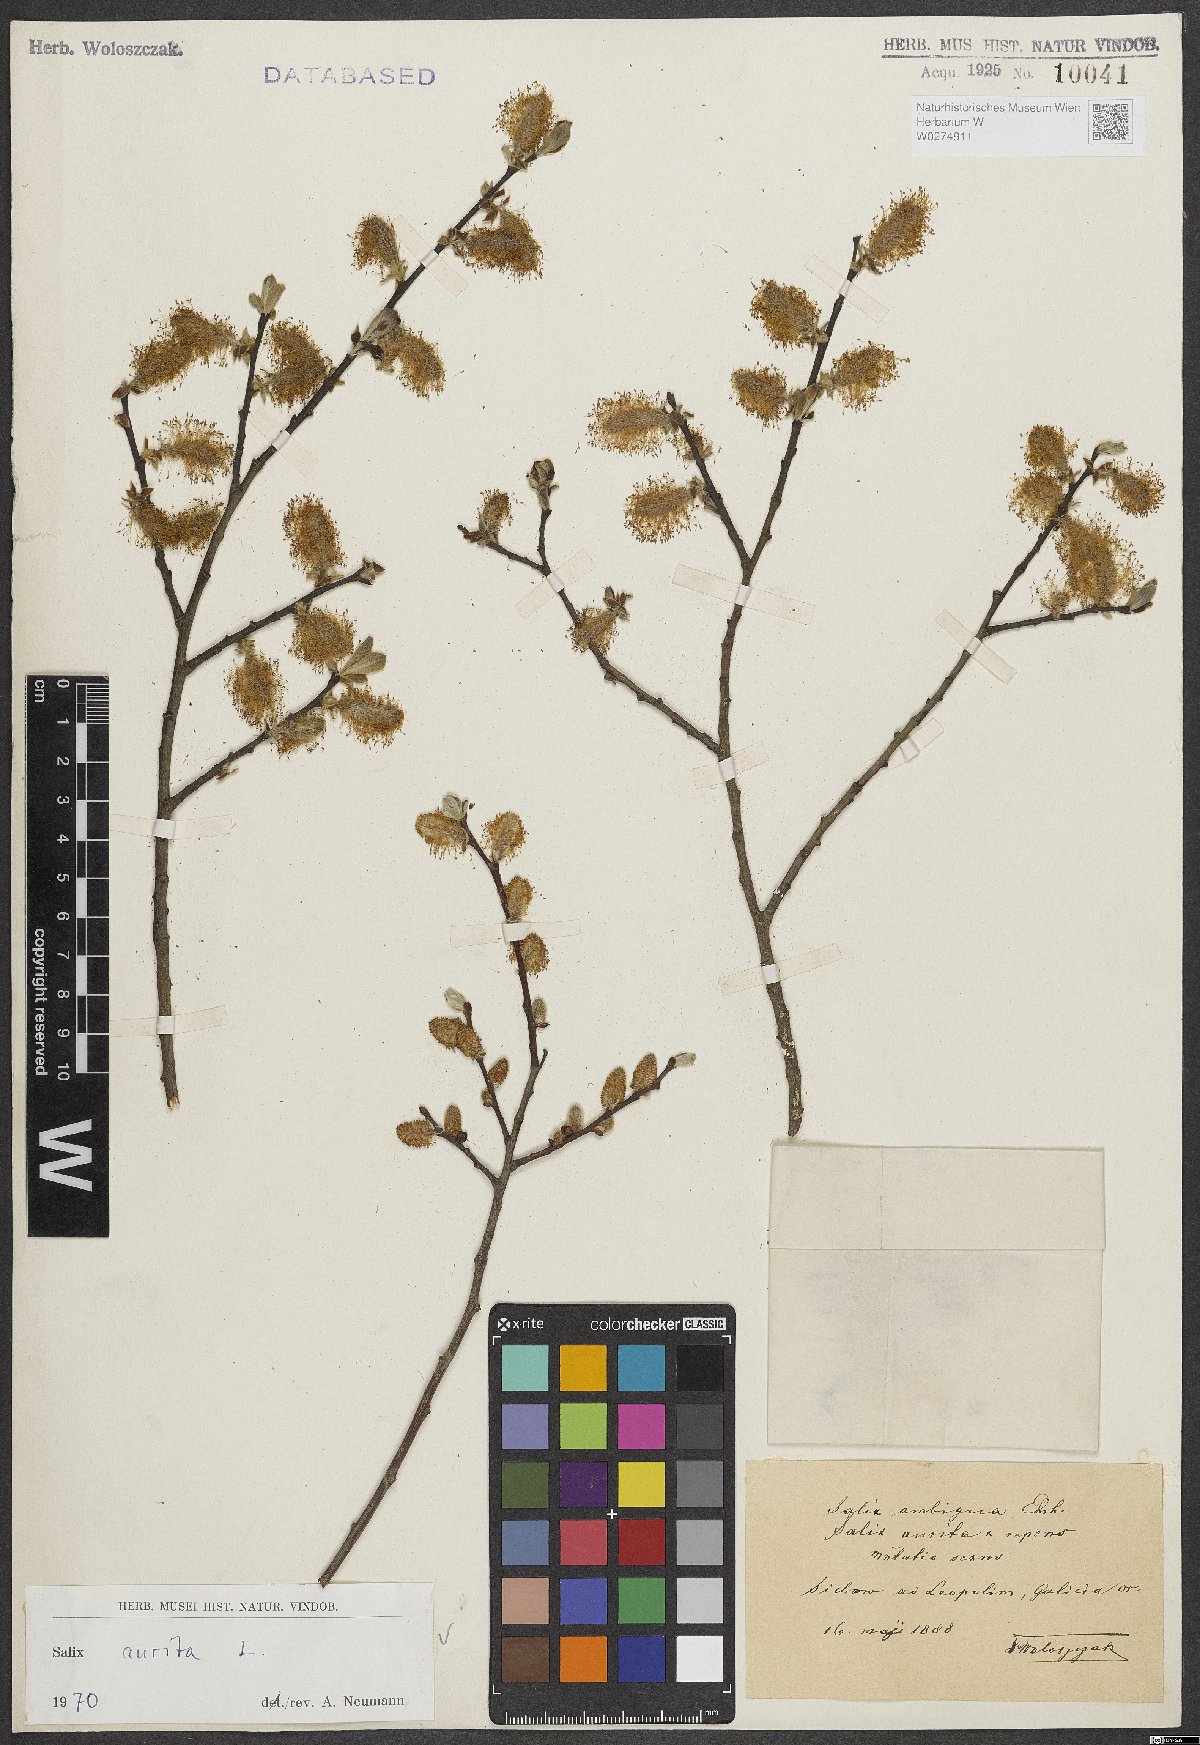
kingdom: Plantae
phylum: Tracheophyta
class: Magnoliopsida
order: Malpighiales
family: Salicaceae
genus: Salix
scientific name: Salix aurita
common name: Eared willow
